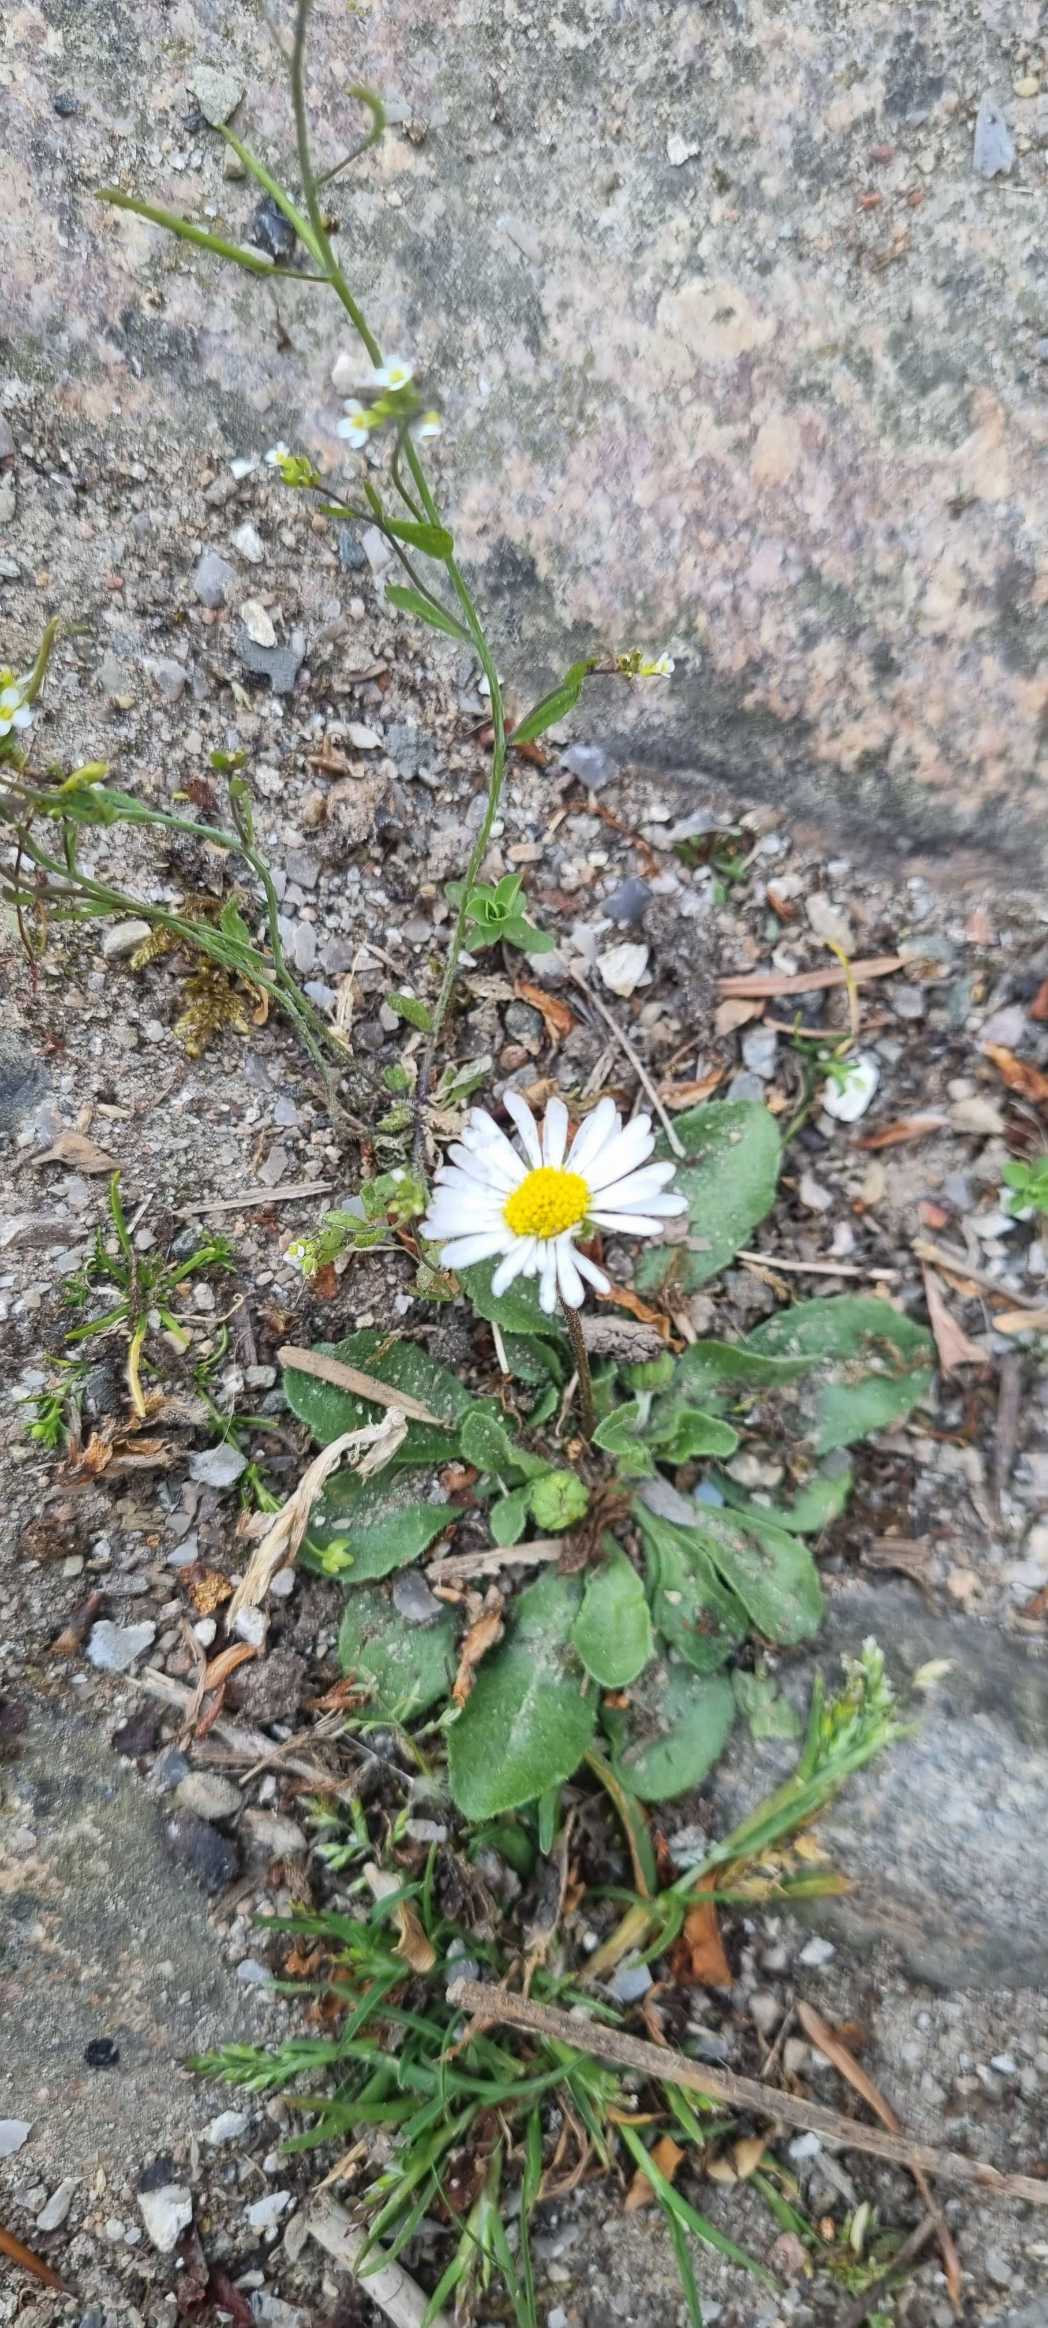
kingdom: Plantae
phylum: Tracheophyta
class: Magnoliopsida
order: Asterales
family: Asteraceae
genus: Bellis
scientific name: Bellis perennis
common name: Tusindfryd
